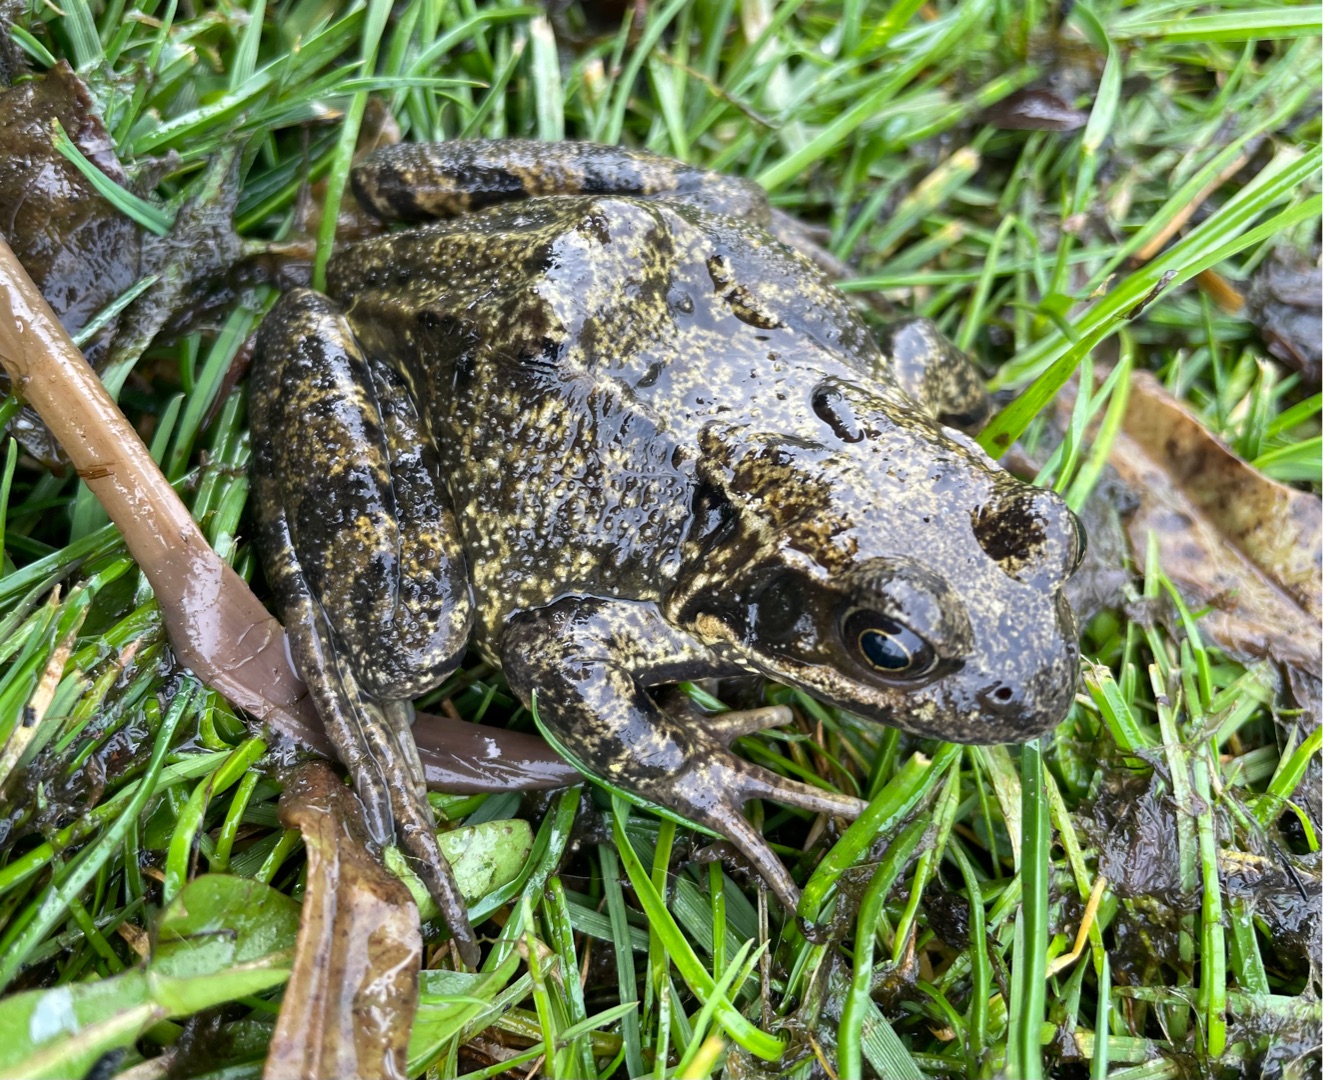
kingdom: Animalia
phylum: Chordata
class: Amphibia
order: Anura
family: Ranidae
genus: Rana
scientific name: Rana temporaria
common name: Butsnudet frø
